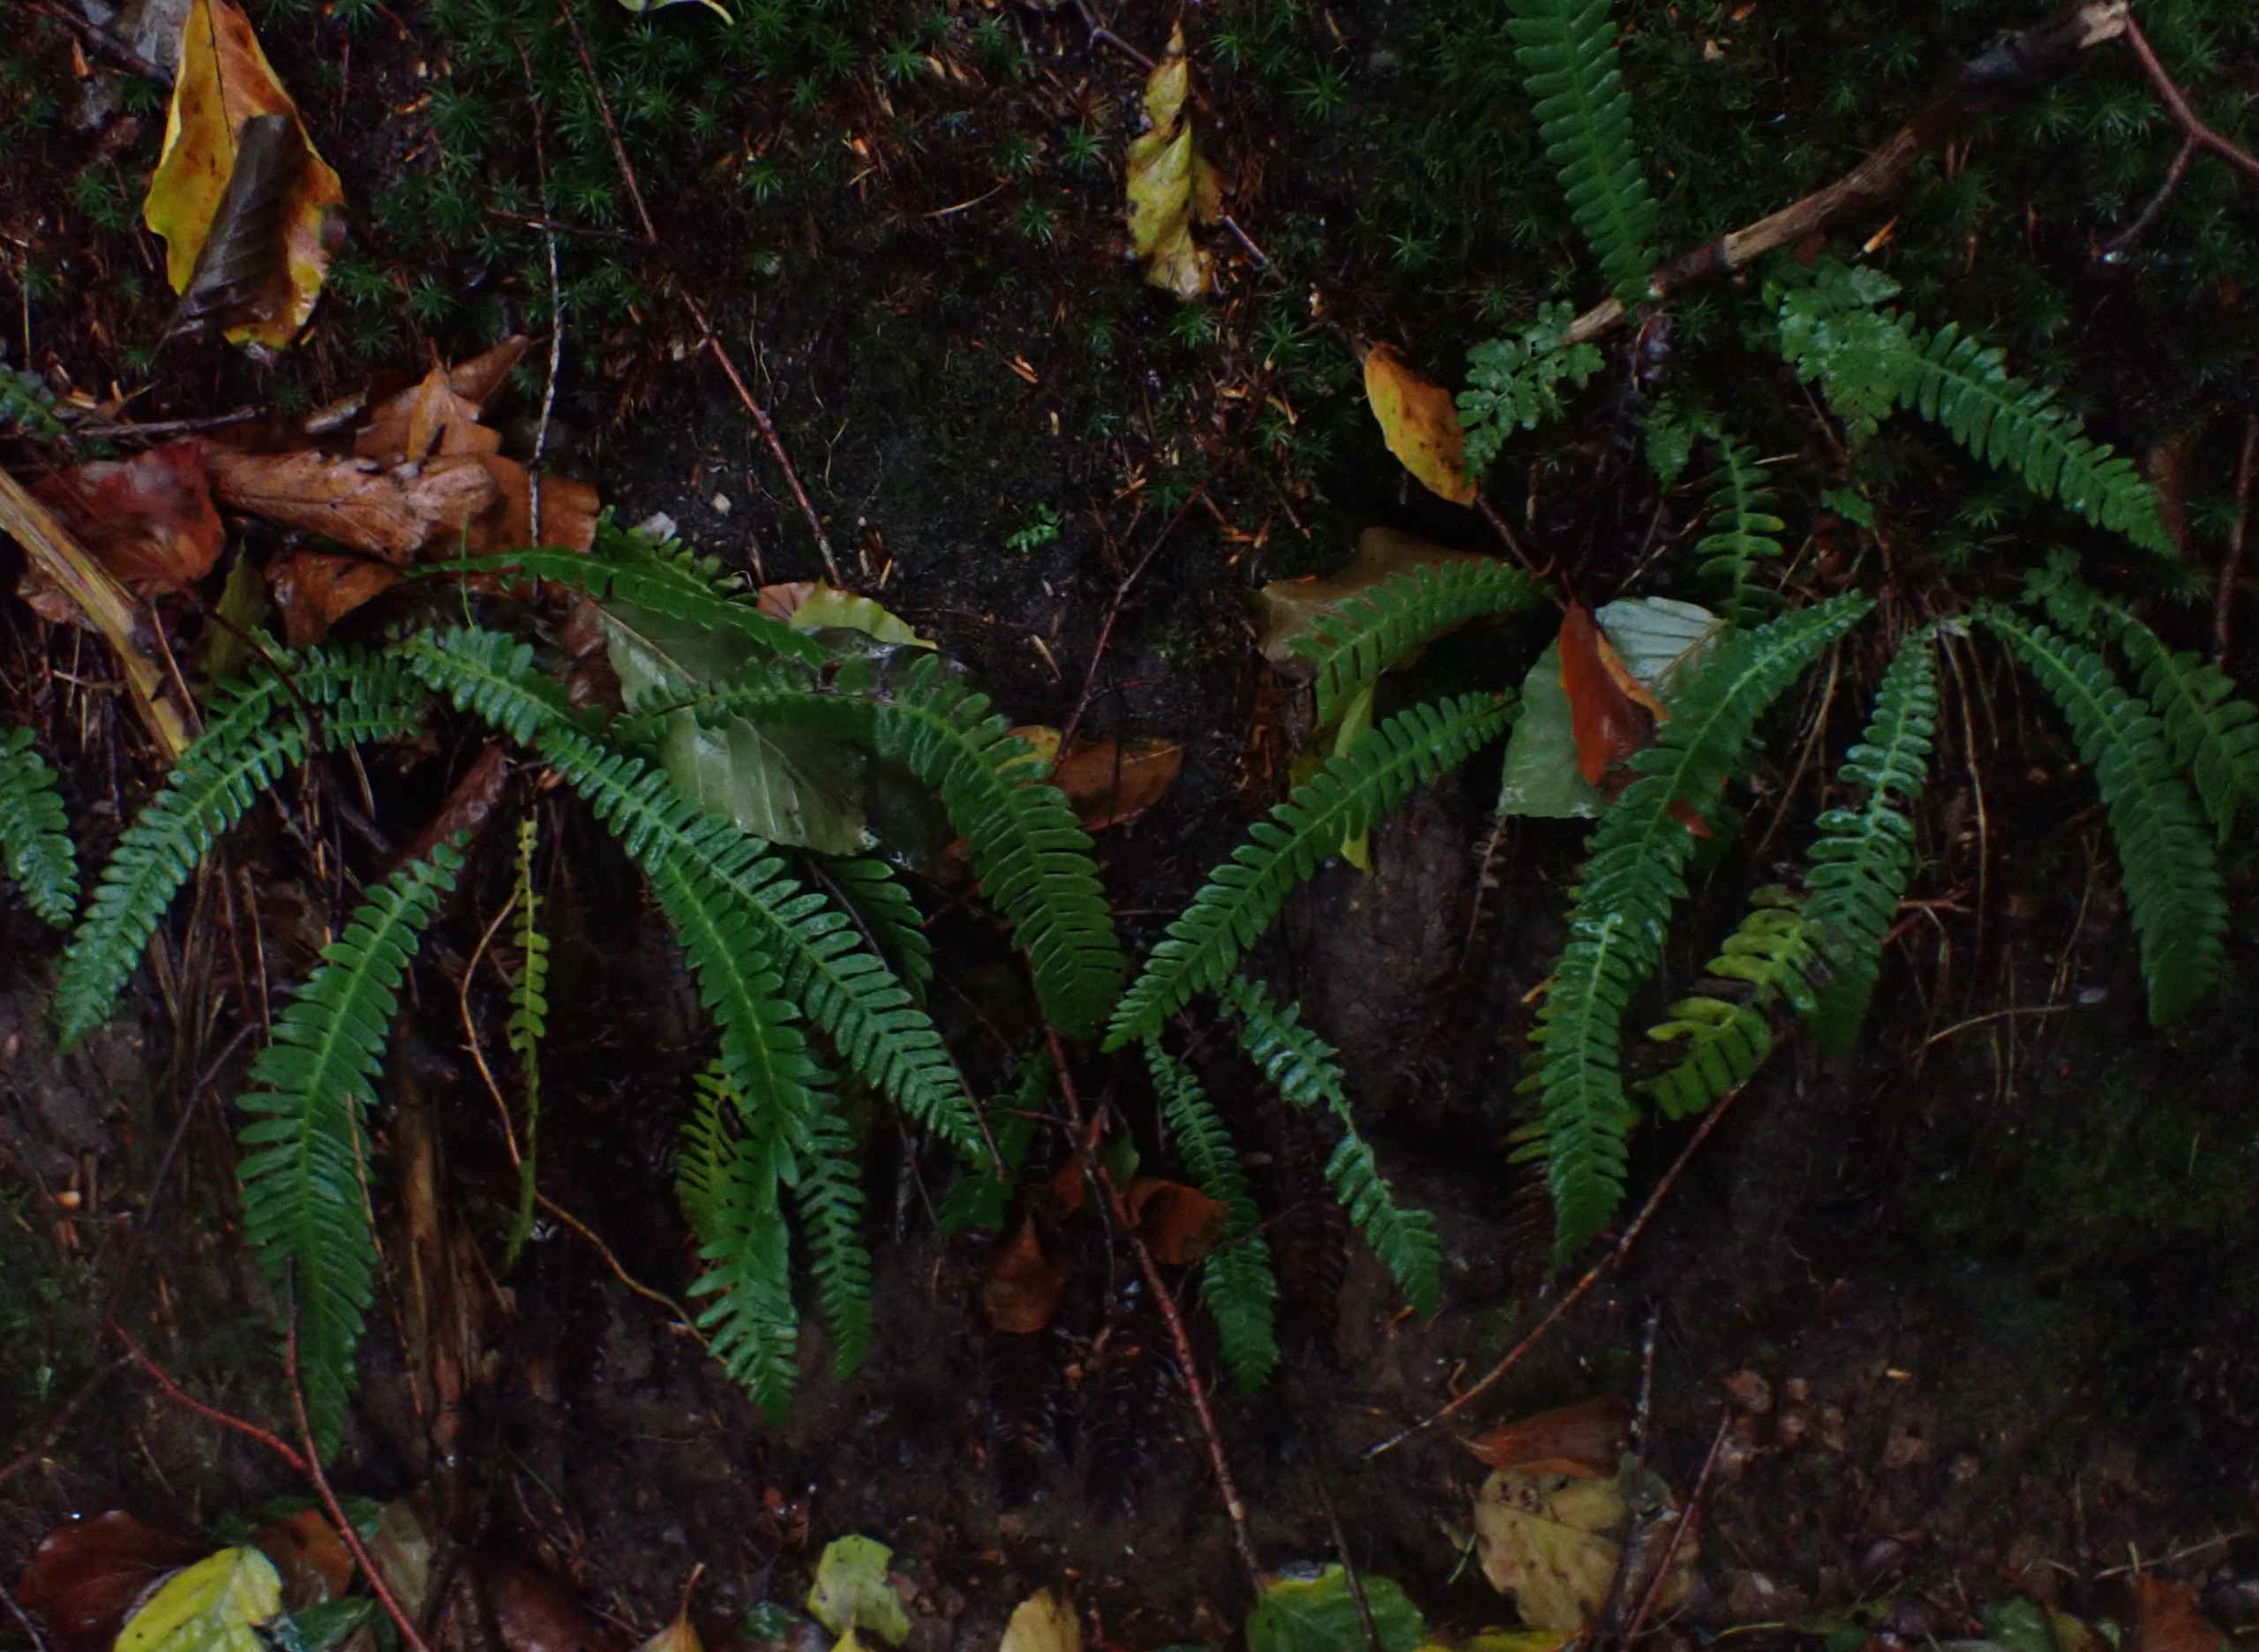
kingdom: Plantae
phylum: Tracheophyta
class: Polypodiopsida
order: Polypodiales
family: Blechnaceae
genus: Struthiopteris
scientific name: Struthiopteris spicant
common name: Kambregne
